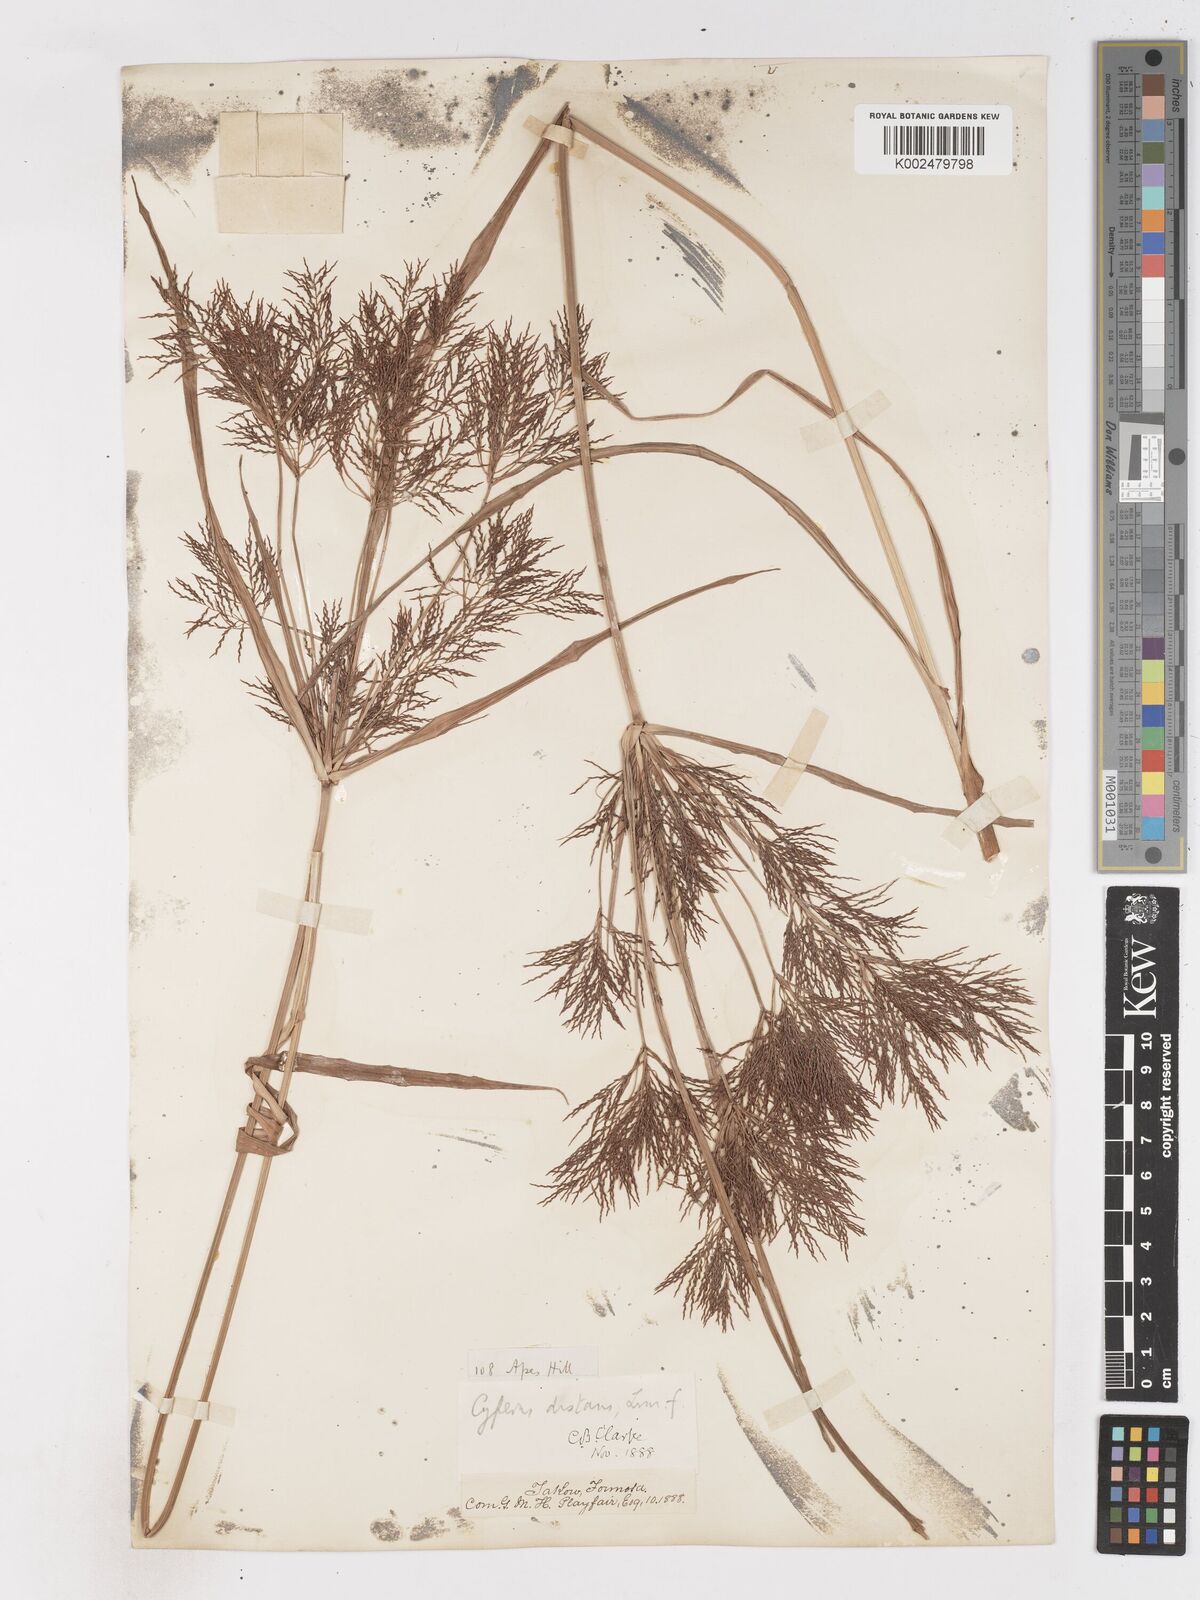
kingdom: Plantae
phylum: Tracheophyta
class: Liliopsida
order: Poales
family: Cyperaceae
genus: Cyperus
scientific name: Cyperus distans
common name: Slender cyperus
